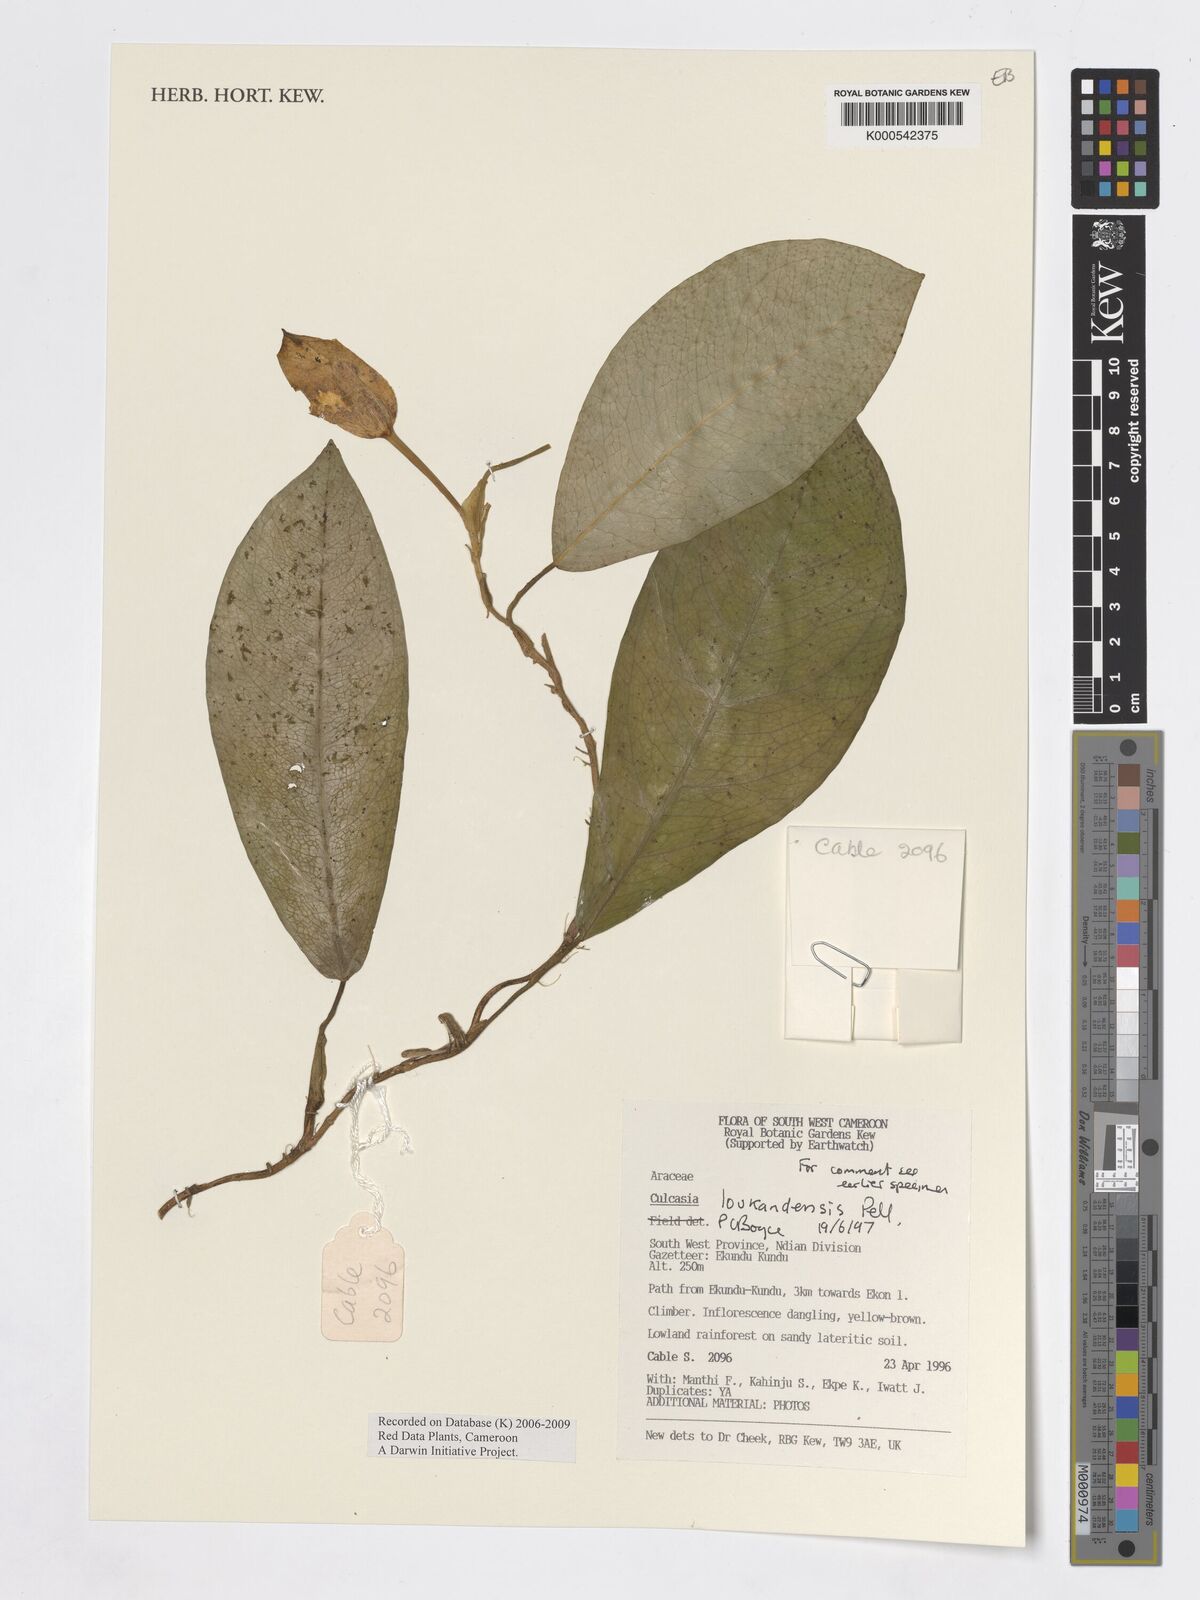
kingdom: Plantae
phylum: Tracheophyta
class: Liliopsida
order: Alismatales
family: Araceae
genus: Culcasia
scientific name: Culcasia loukandensis
